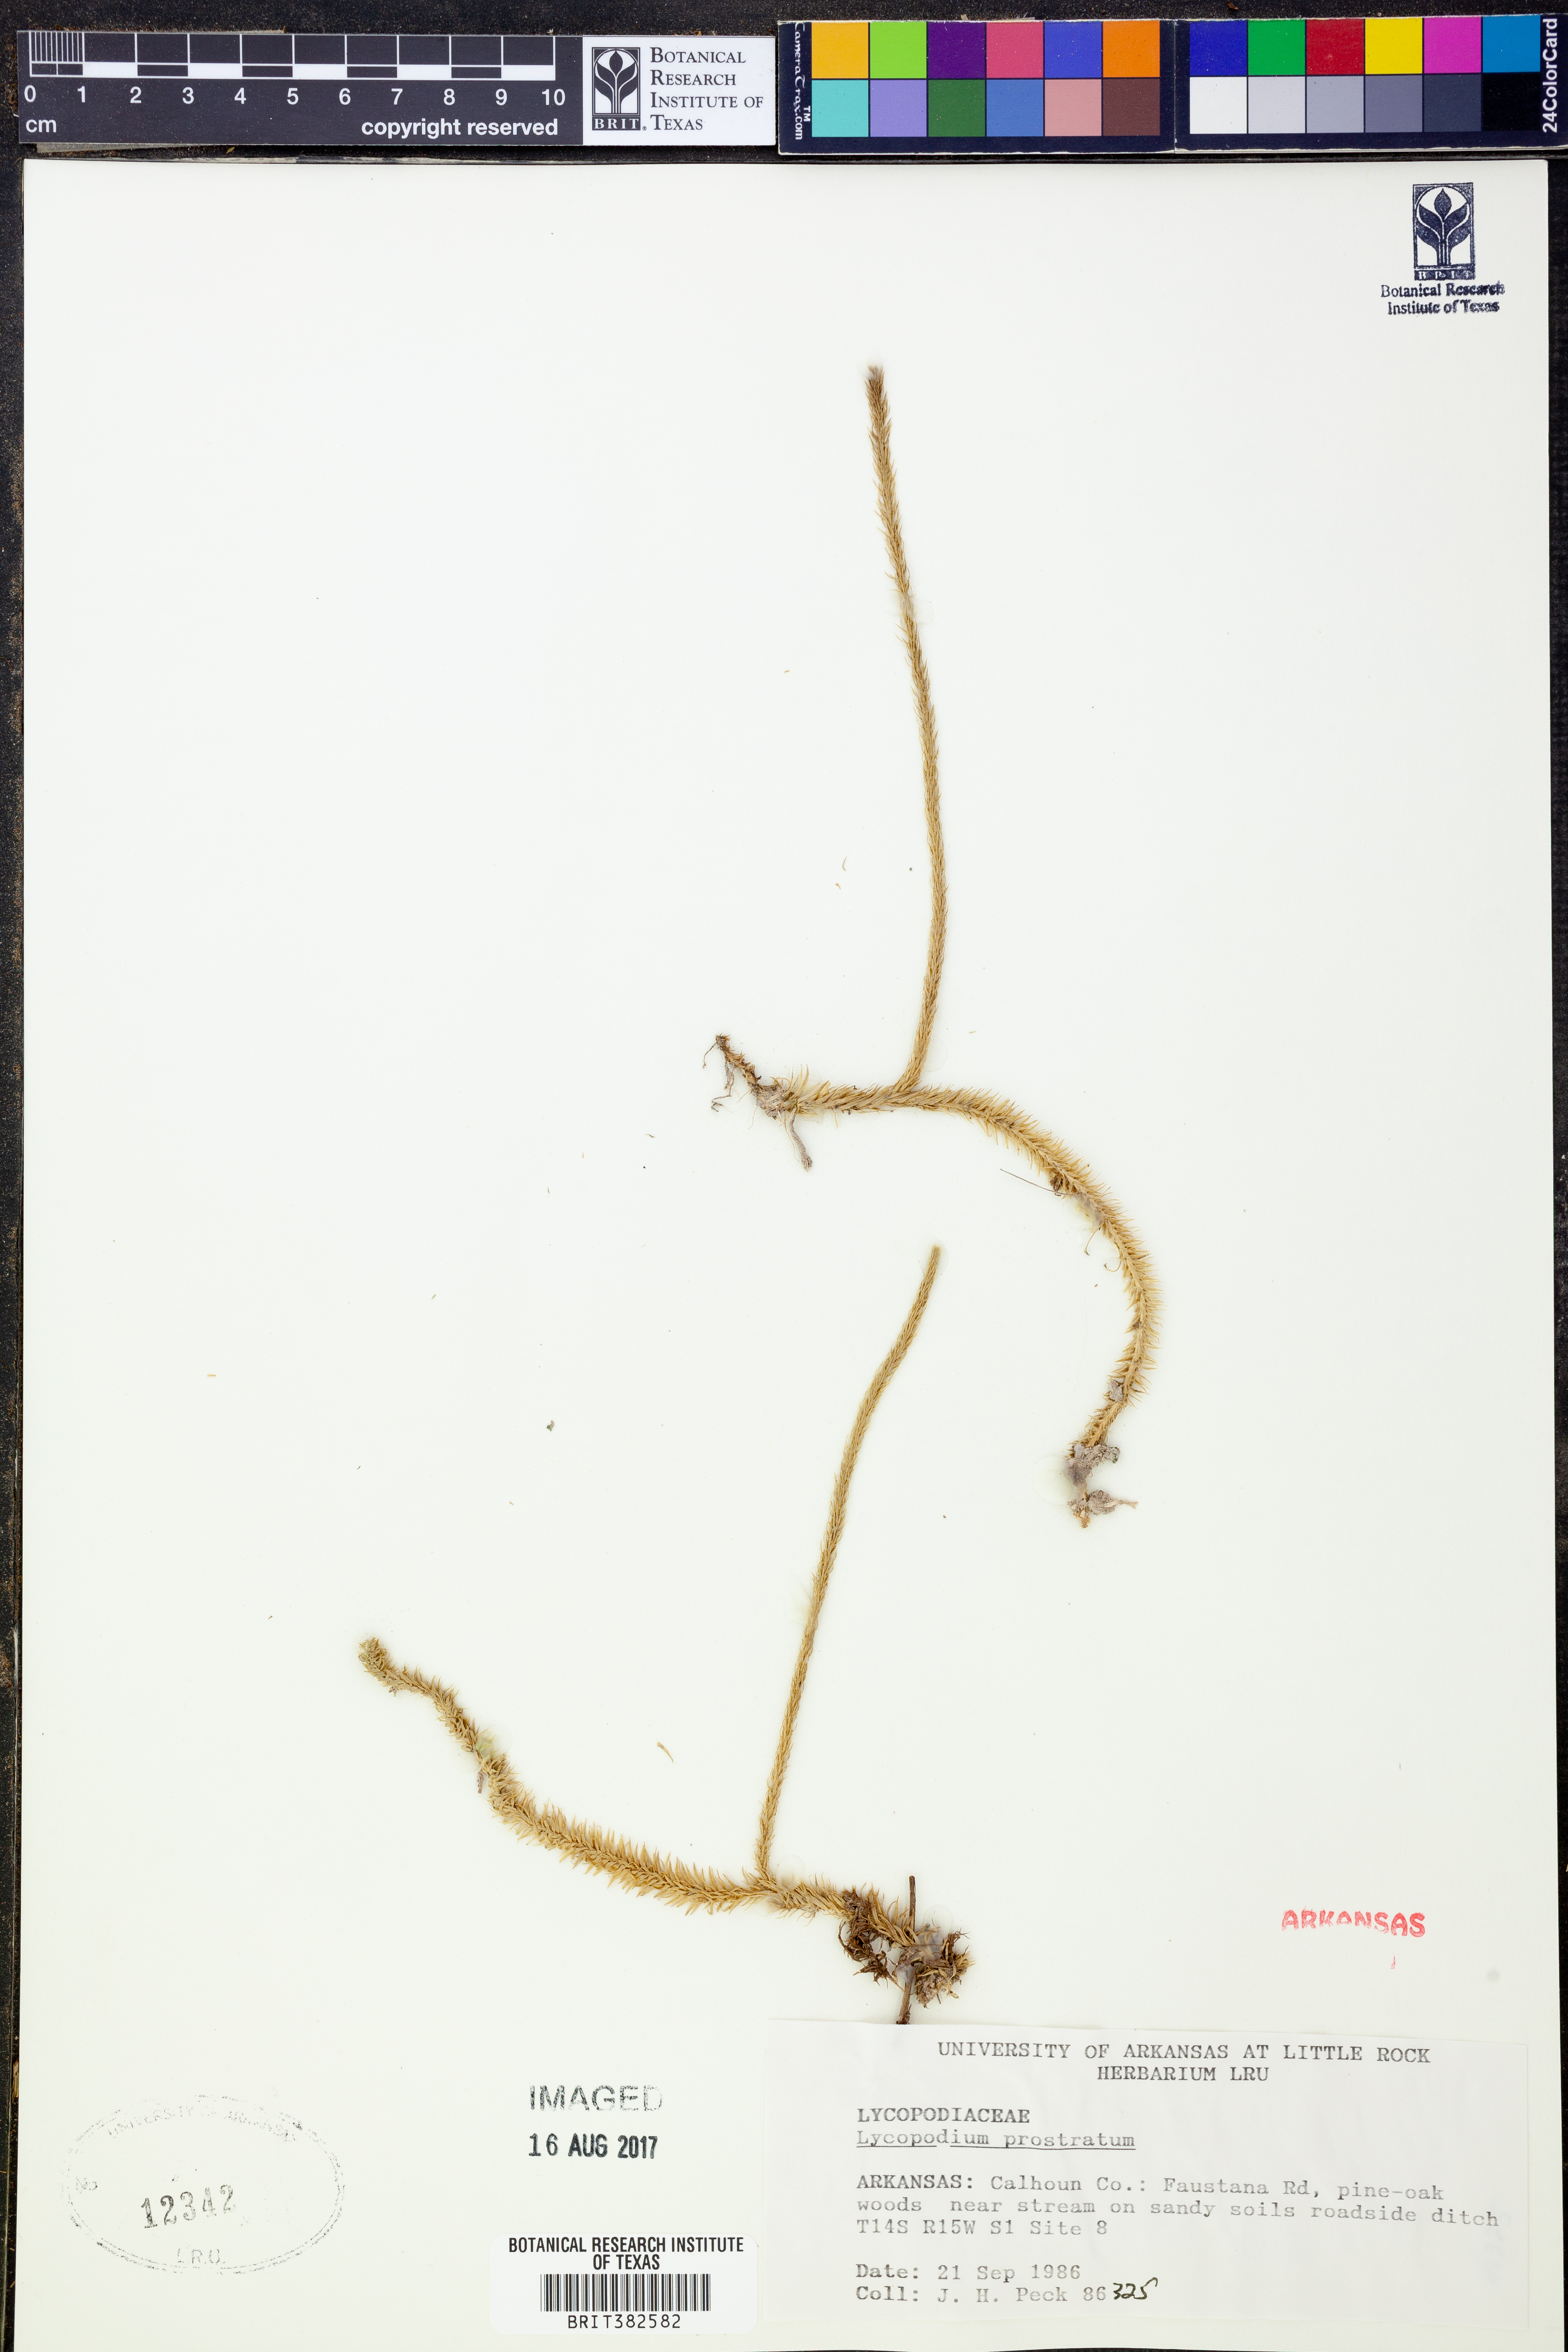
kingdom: Plantae
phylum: Tracheophyta
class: Lycopodiopsida
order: Lycopodiales
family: Lycopodiaceae
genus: Lycopodiella
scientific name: Lycopodiella prostrata
